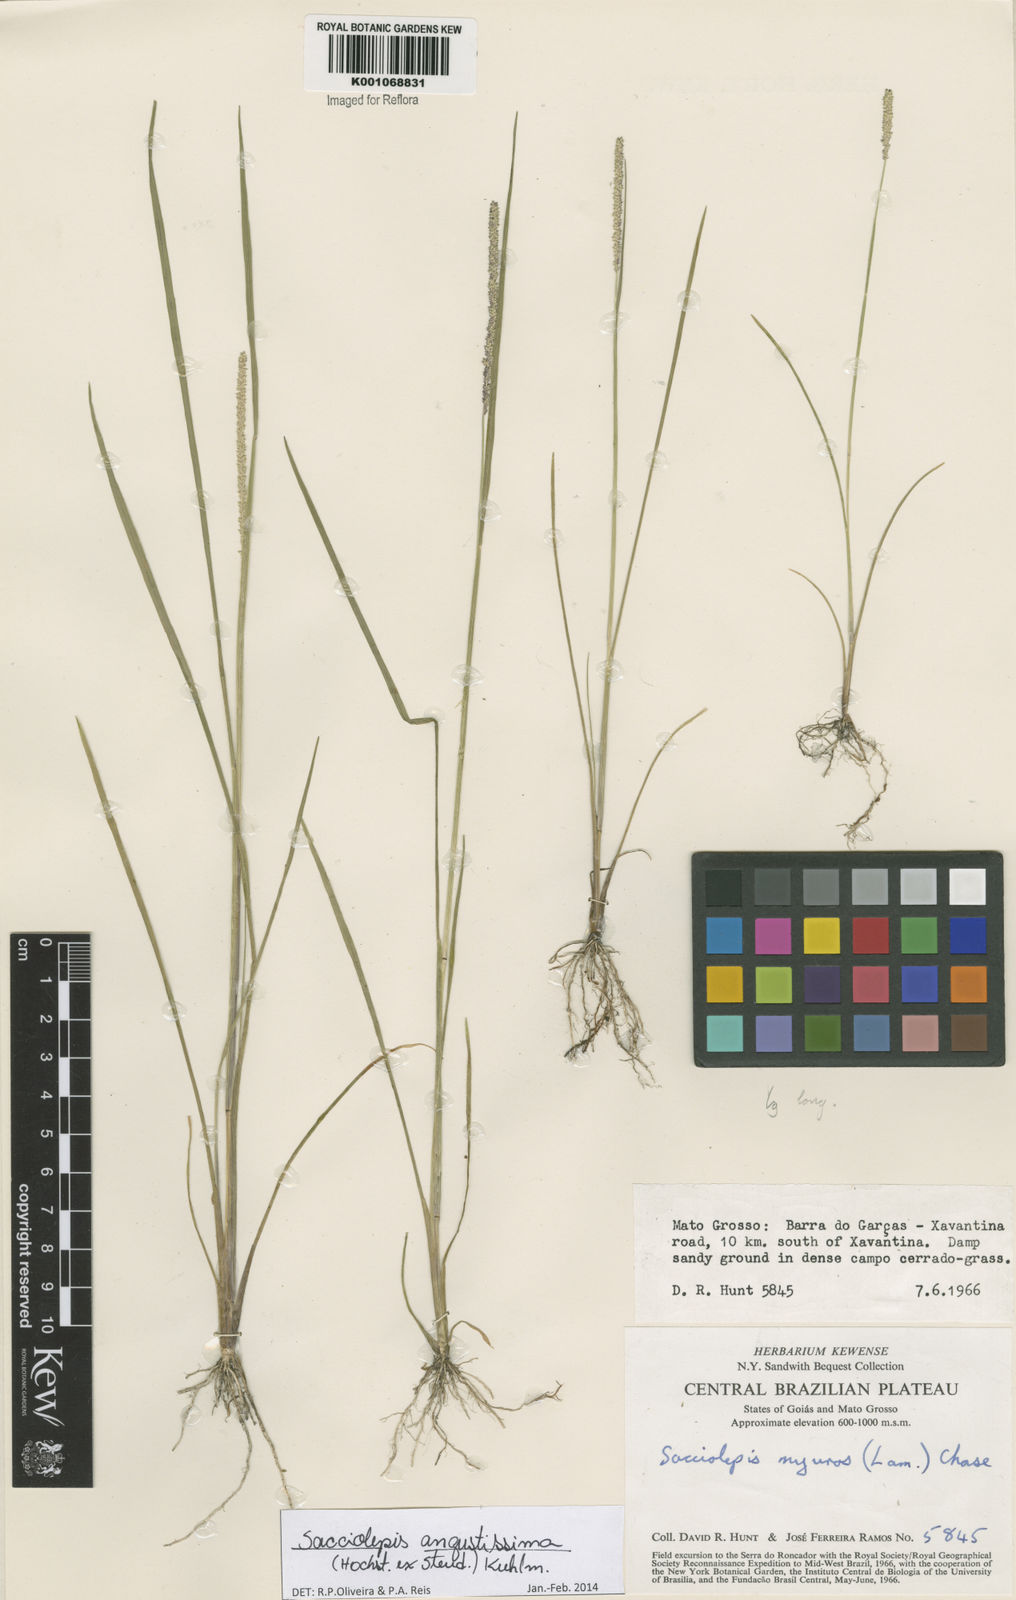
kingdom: Plantae
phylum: Tracheophyta
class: Liliopsida
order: Poales
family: Poaceae
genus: Sacciolepis
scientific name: Sacciolepis angustissima
